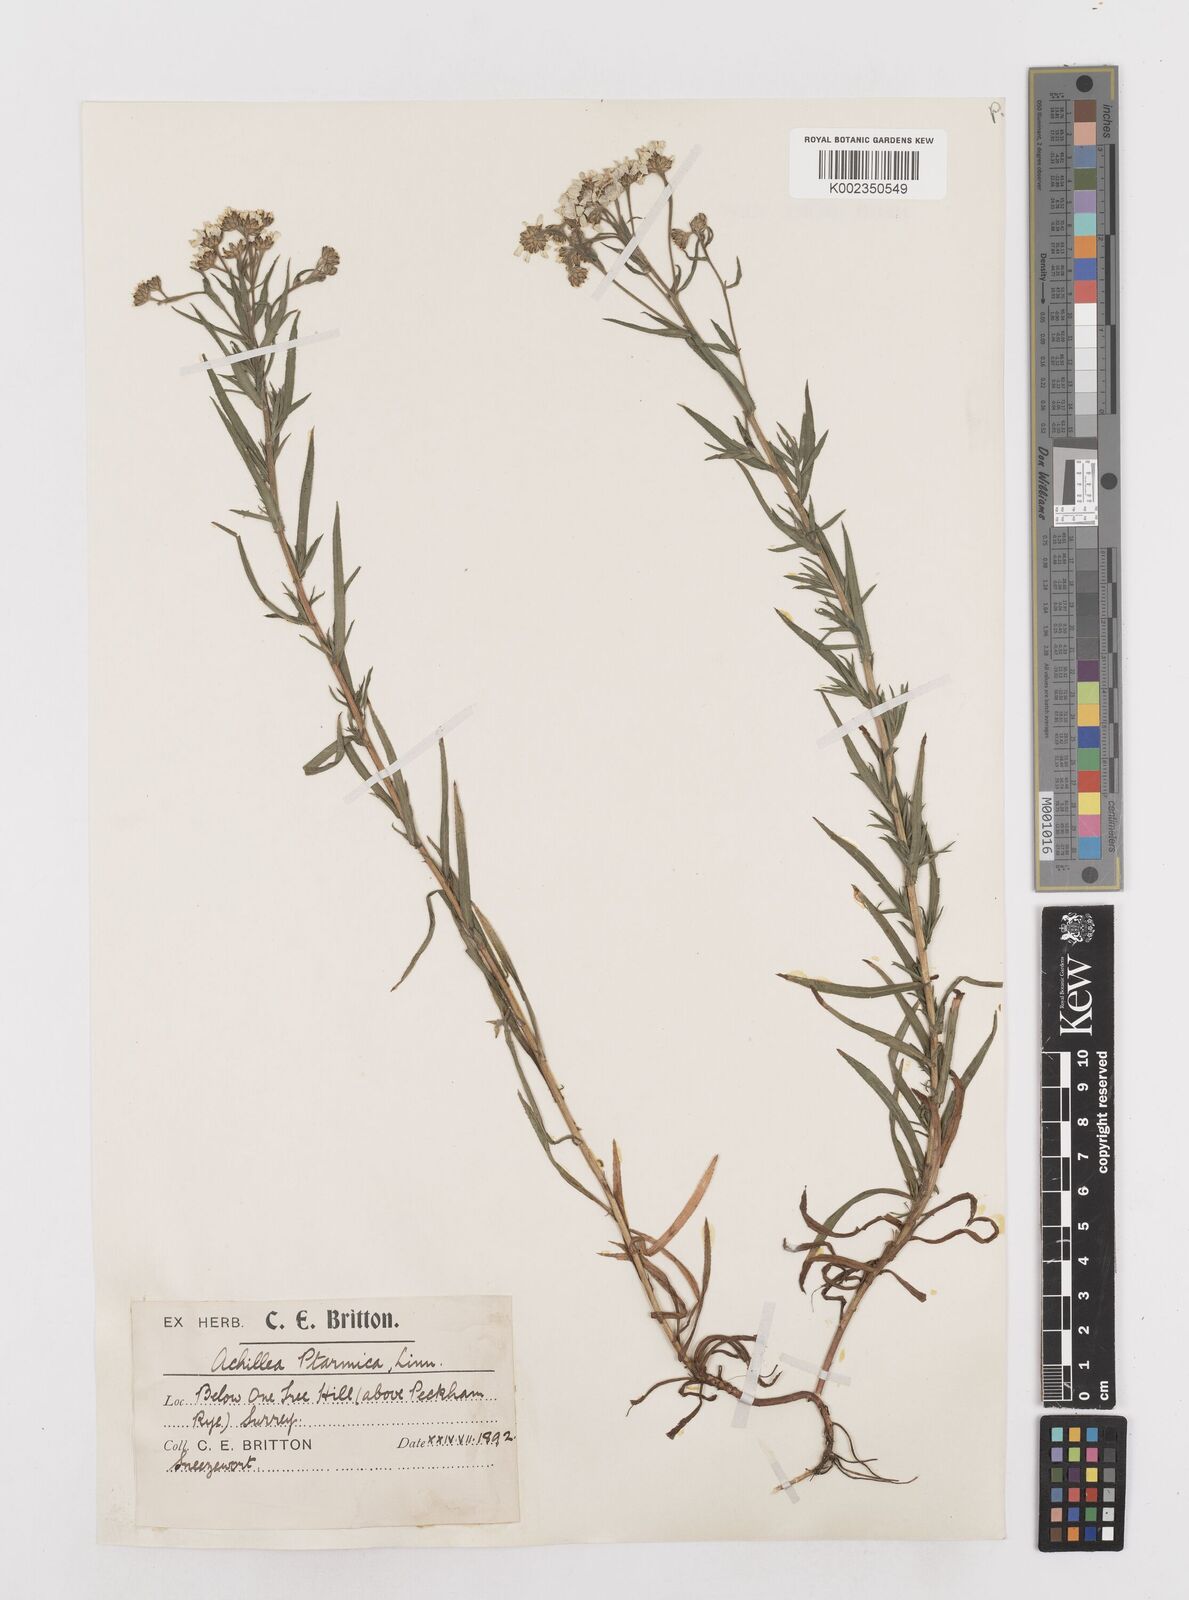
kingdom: Plantae
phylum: Tracheophyta
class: Magnoliopsida
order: Asterales
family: Asteraceae
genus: Achillea
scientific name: Achillea ptarmica
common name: Sneezeweed
